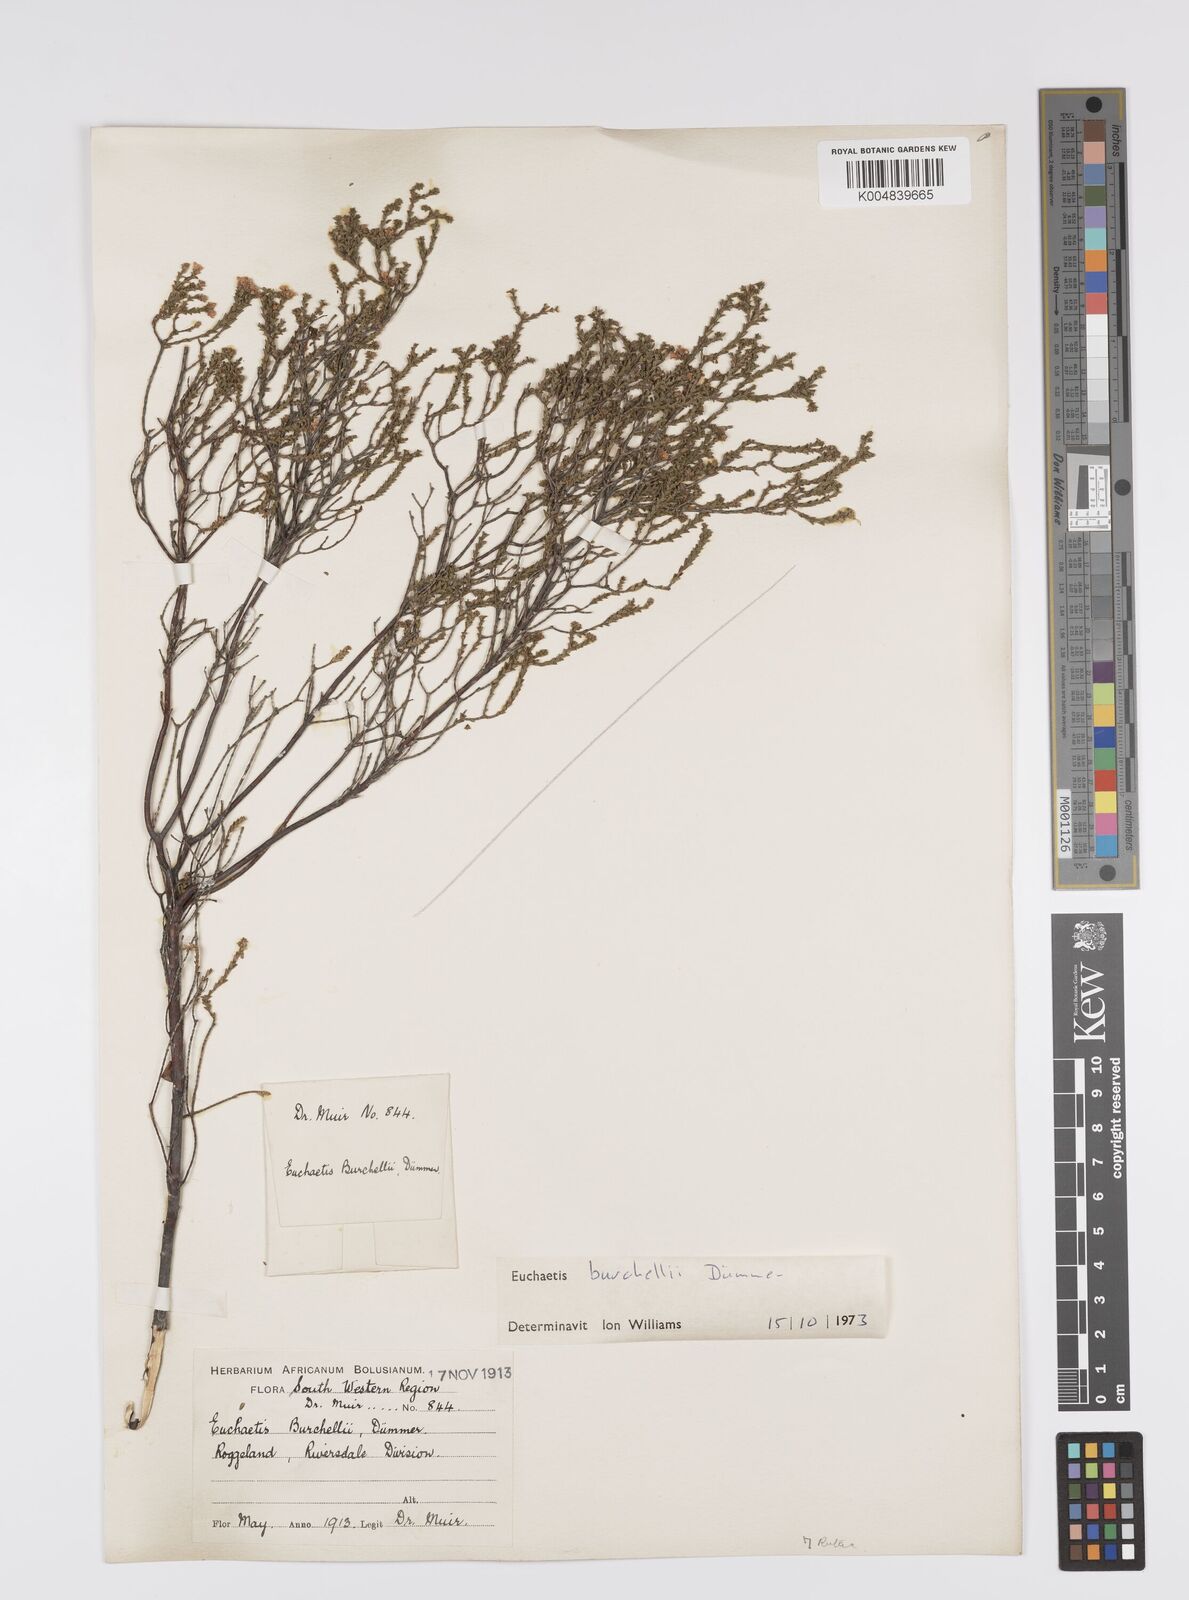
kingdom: Plantae
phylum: Tracheophyta
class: Magnoliopsida
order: Sapindales
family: Rutaceae
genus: Euchaetis
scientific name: Euchaetis burchellii
